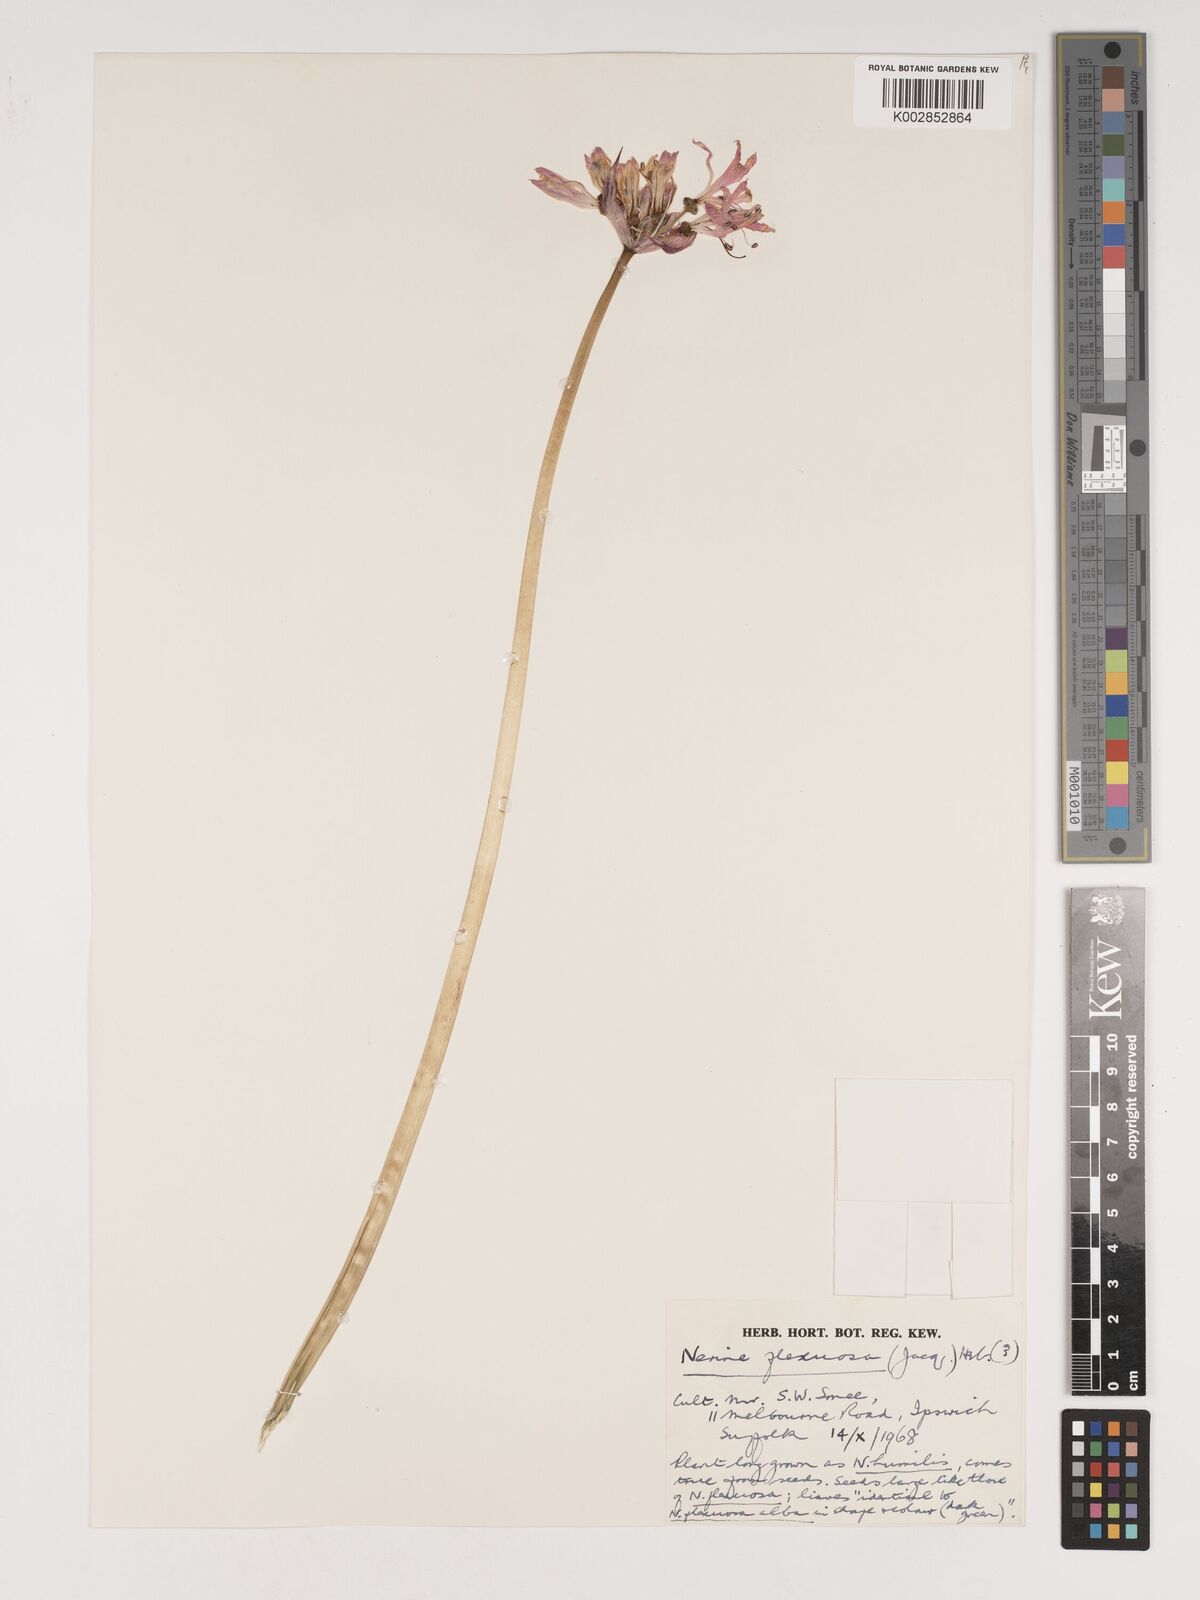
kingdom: Plantae
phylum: Tracheophyta
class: Liliopsida
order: Asparagales
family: Amaryllidaceae
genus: Nerine
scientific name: Nerine undulata
